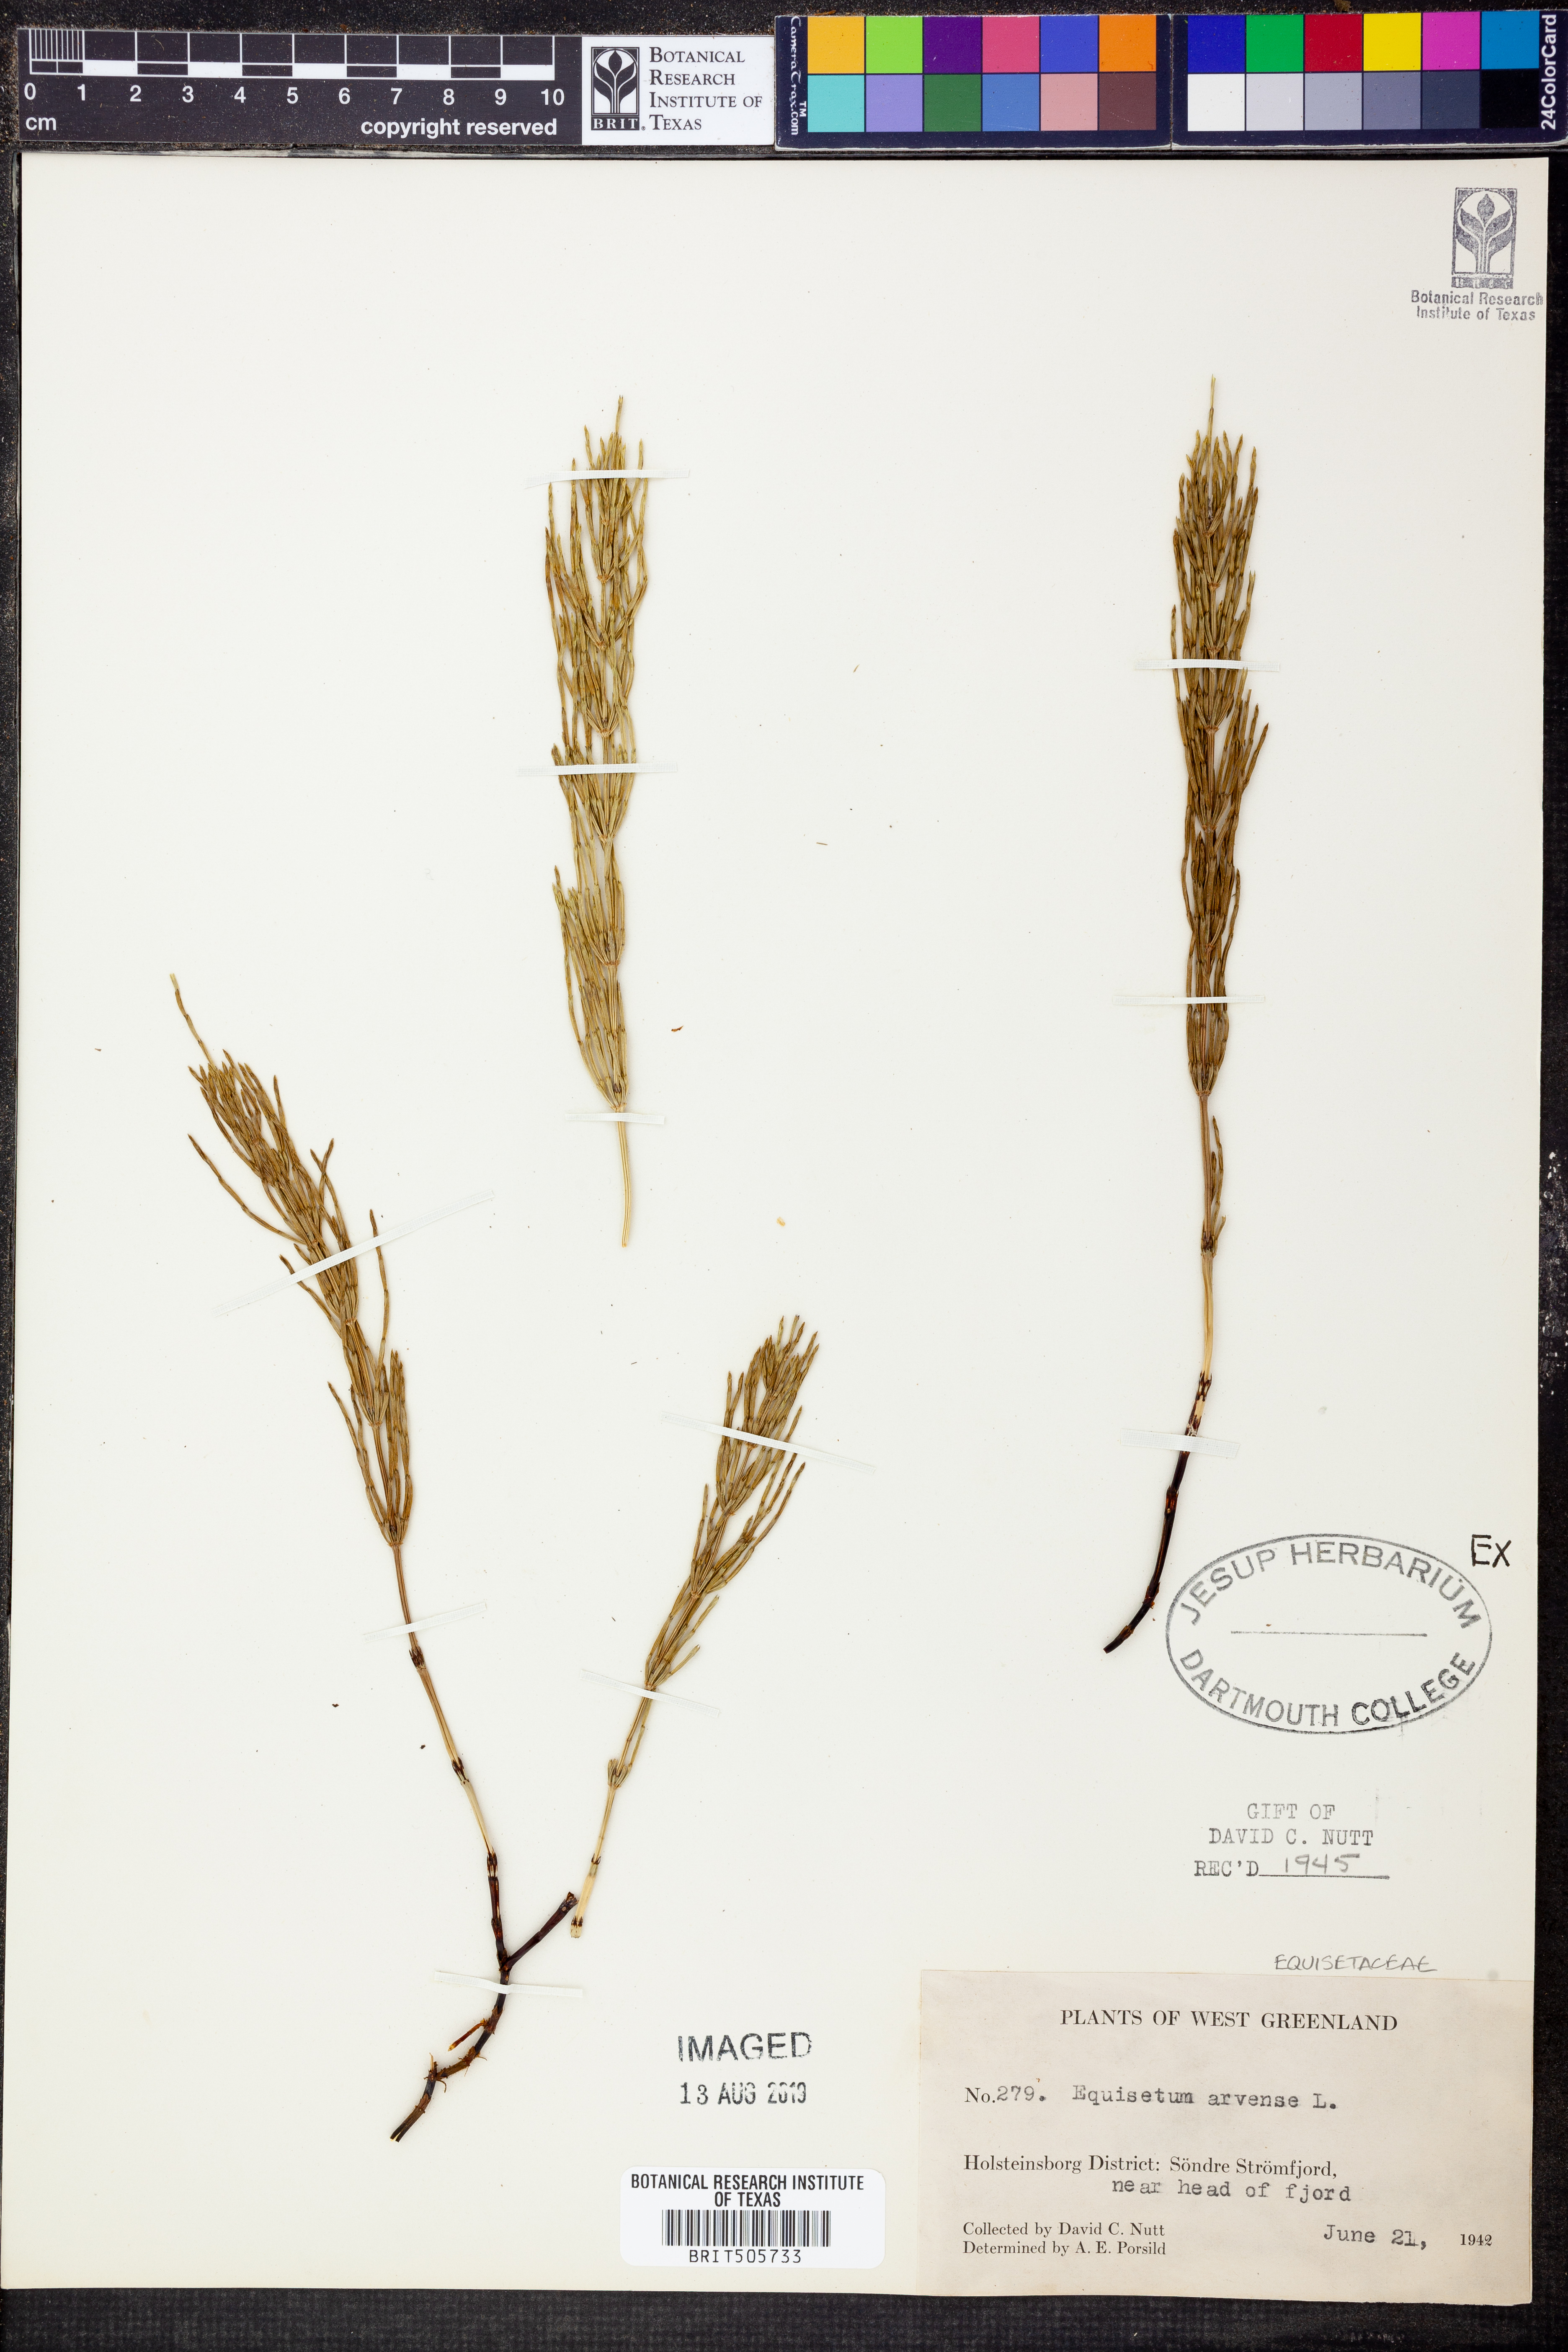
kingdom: Plantae
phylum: Tracheophyta
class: Polypodiopsida
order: Equisetales
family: Equisetaceae
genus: Equisetum
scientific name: Equisetum arvense
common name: Field horsetail
